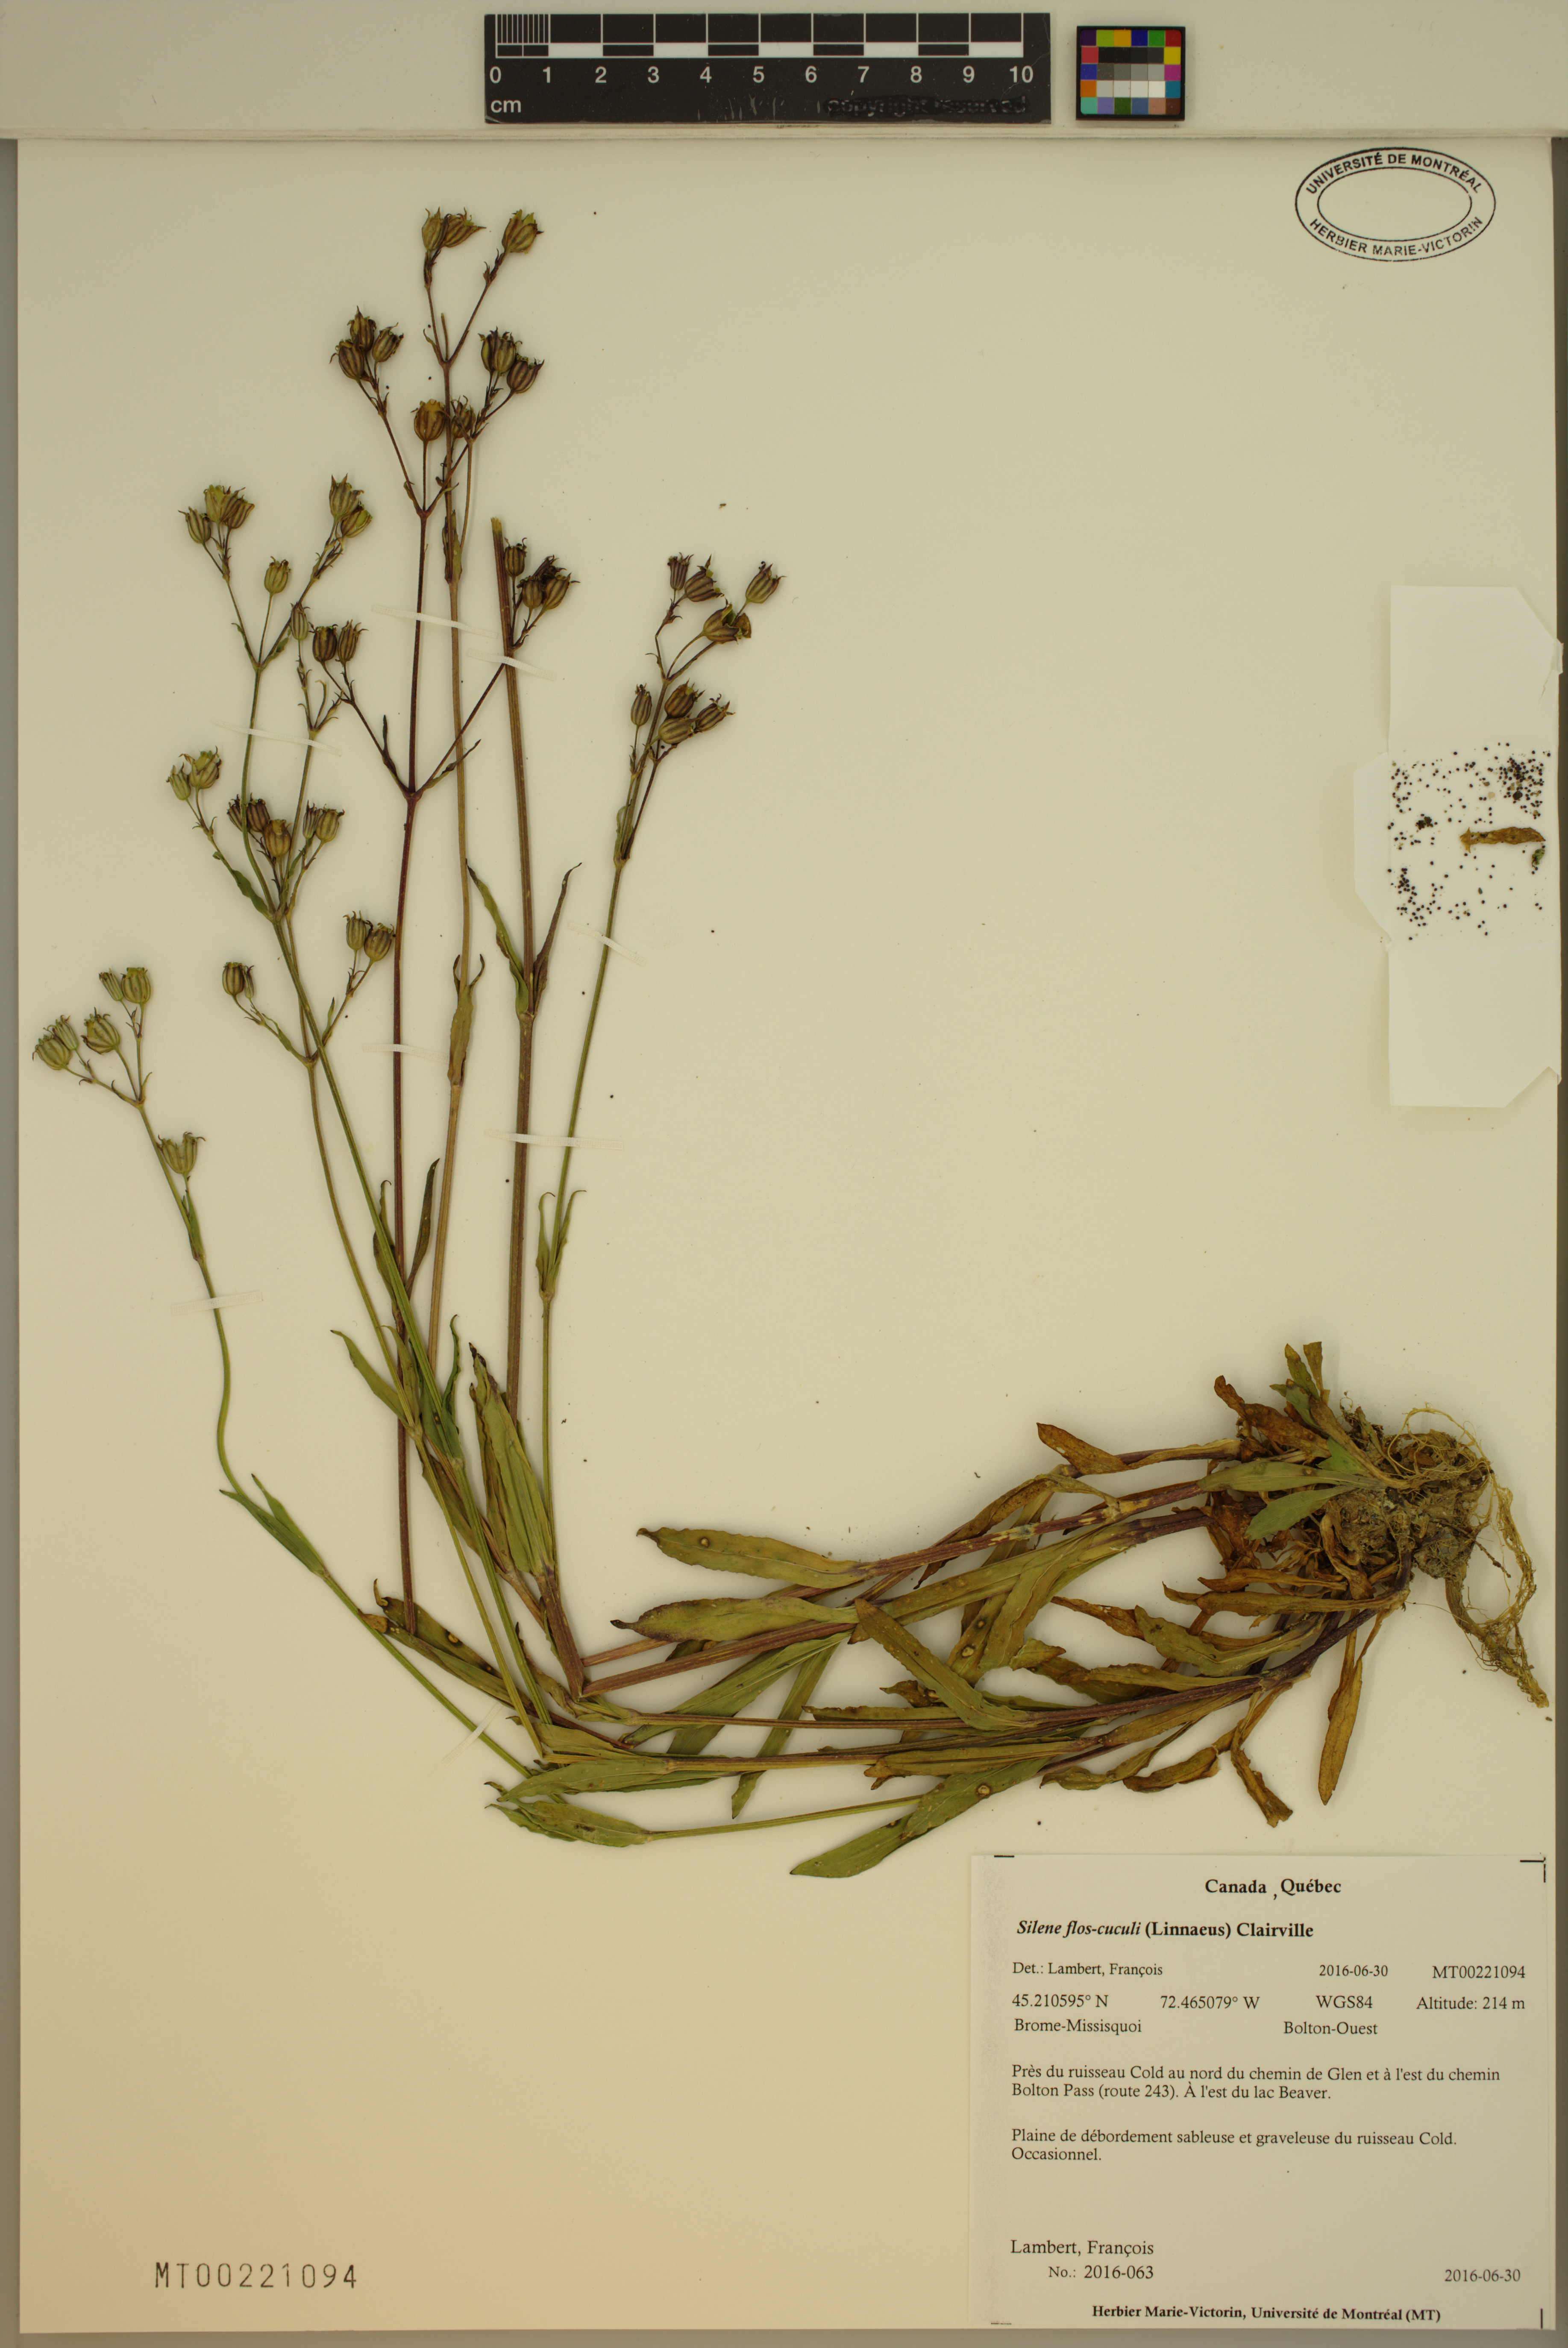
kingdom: Plantae
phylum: Tracheophyta
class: Magnoliopsida
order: Caryophyllales
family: Caryophyllaceae
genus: Silene
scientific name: Silene flos-cuculi
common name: Ragged-robin
